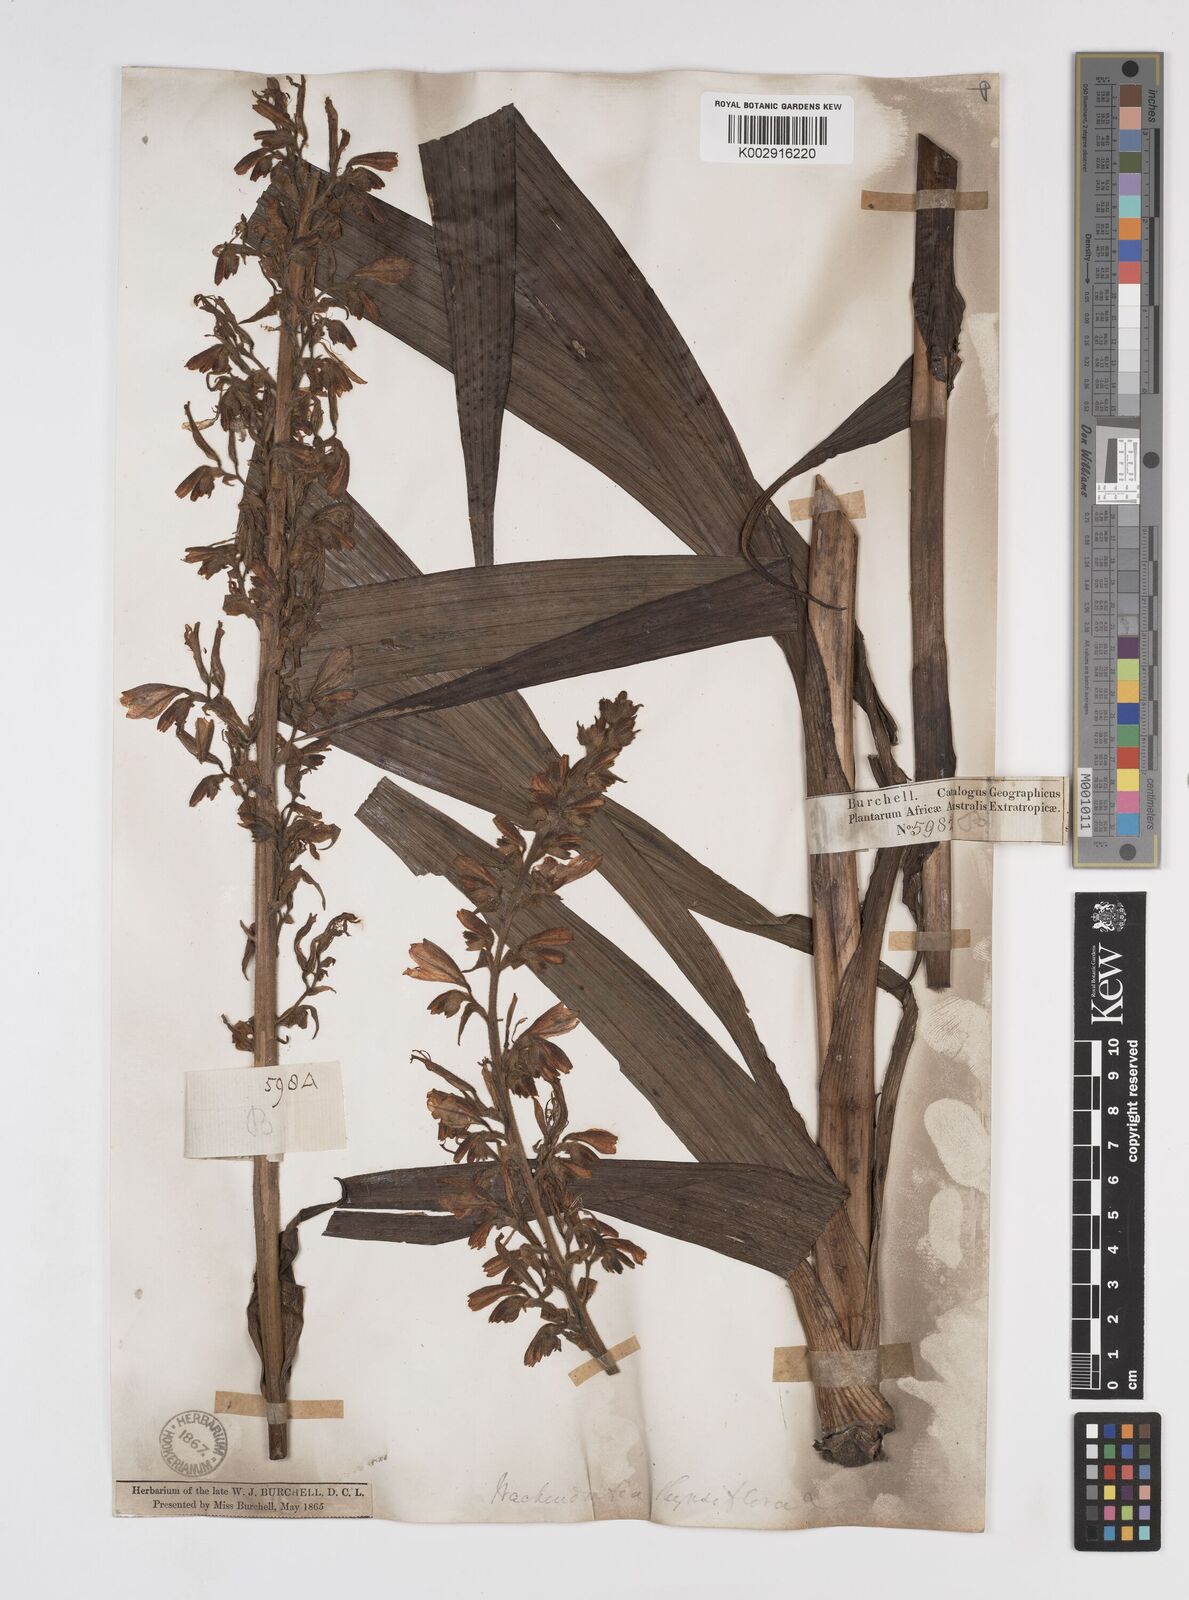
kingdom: Plantae
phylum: Tracheophyta
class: Liliopsida
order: Commelinales
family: Haemodoraceae
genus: Wachendorfia
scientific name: Wachendorfia thyrsiflora
